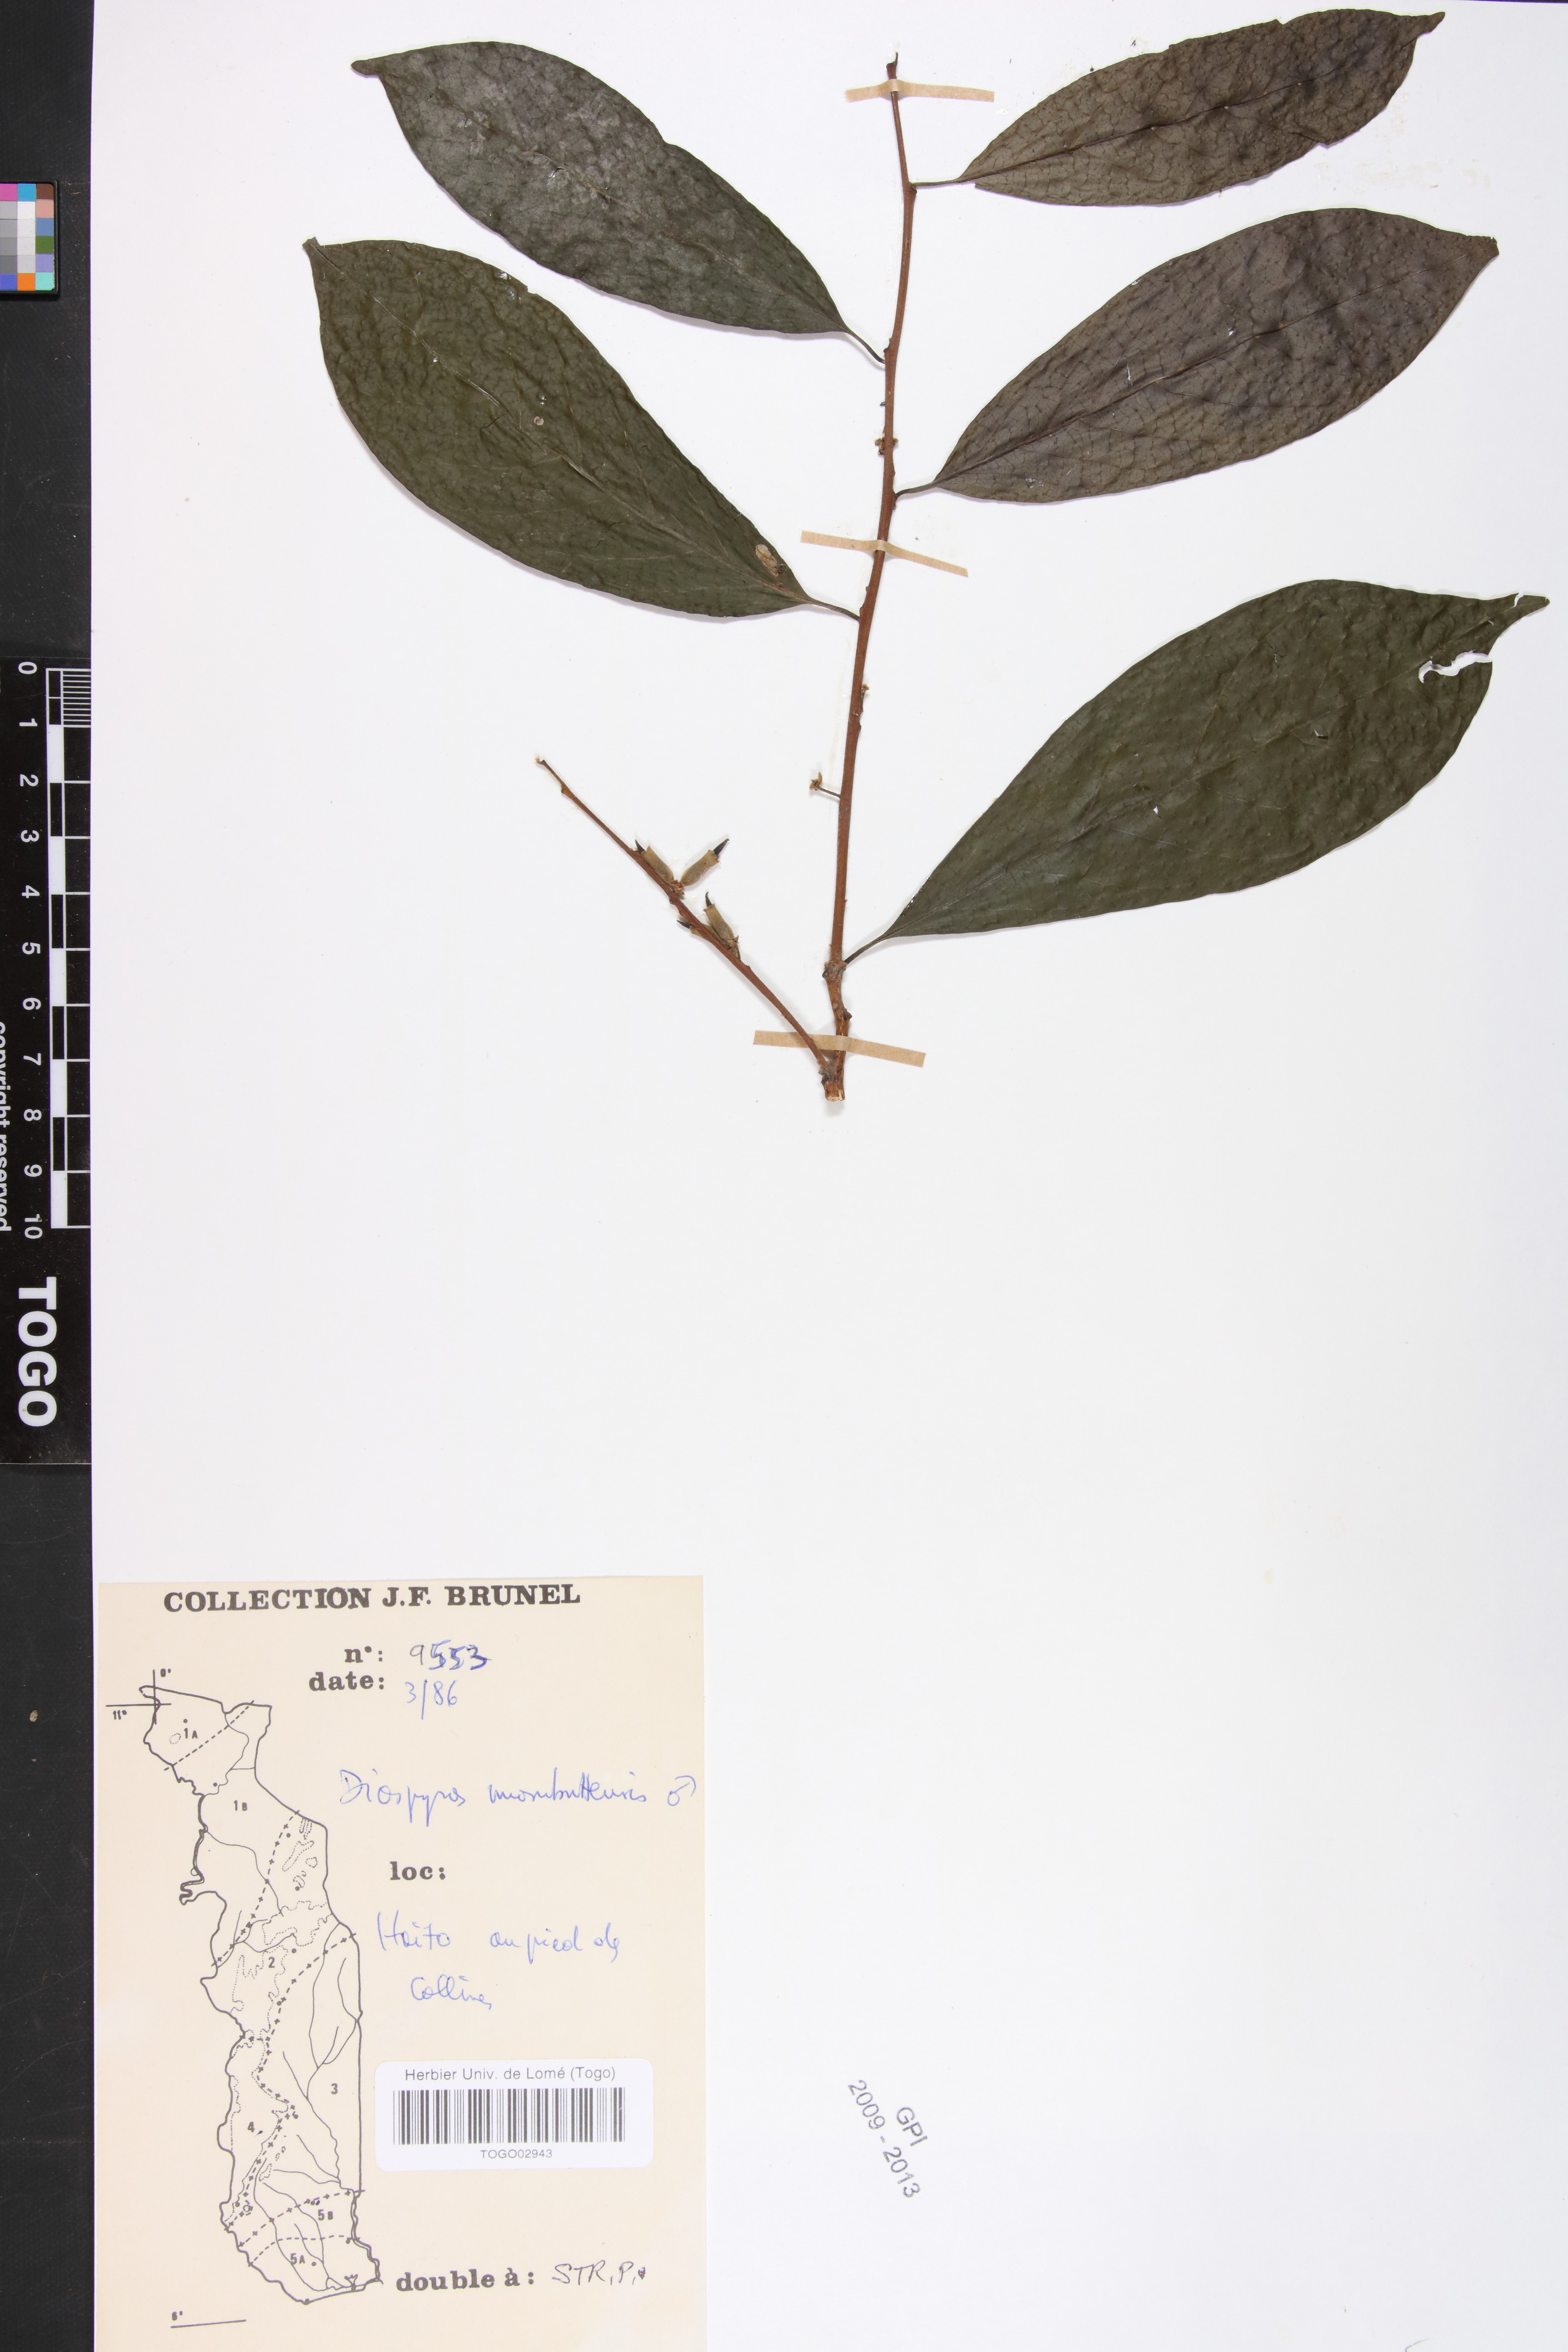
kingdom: Plantae
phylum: Tracheophyta
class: Magnoliopsida
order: Ericales
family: Ebenaceae
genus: Diospyros
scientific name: Diospyros monbuttensis
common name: Walking-stick ebony
